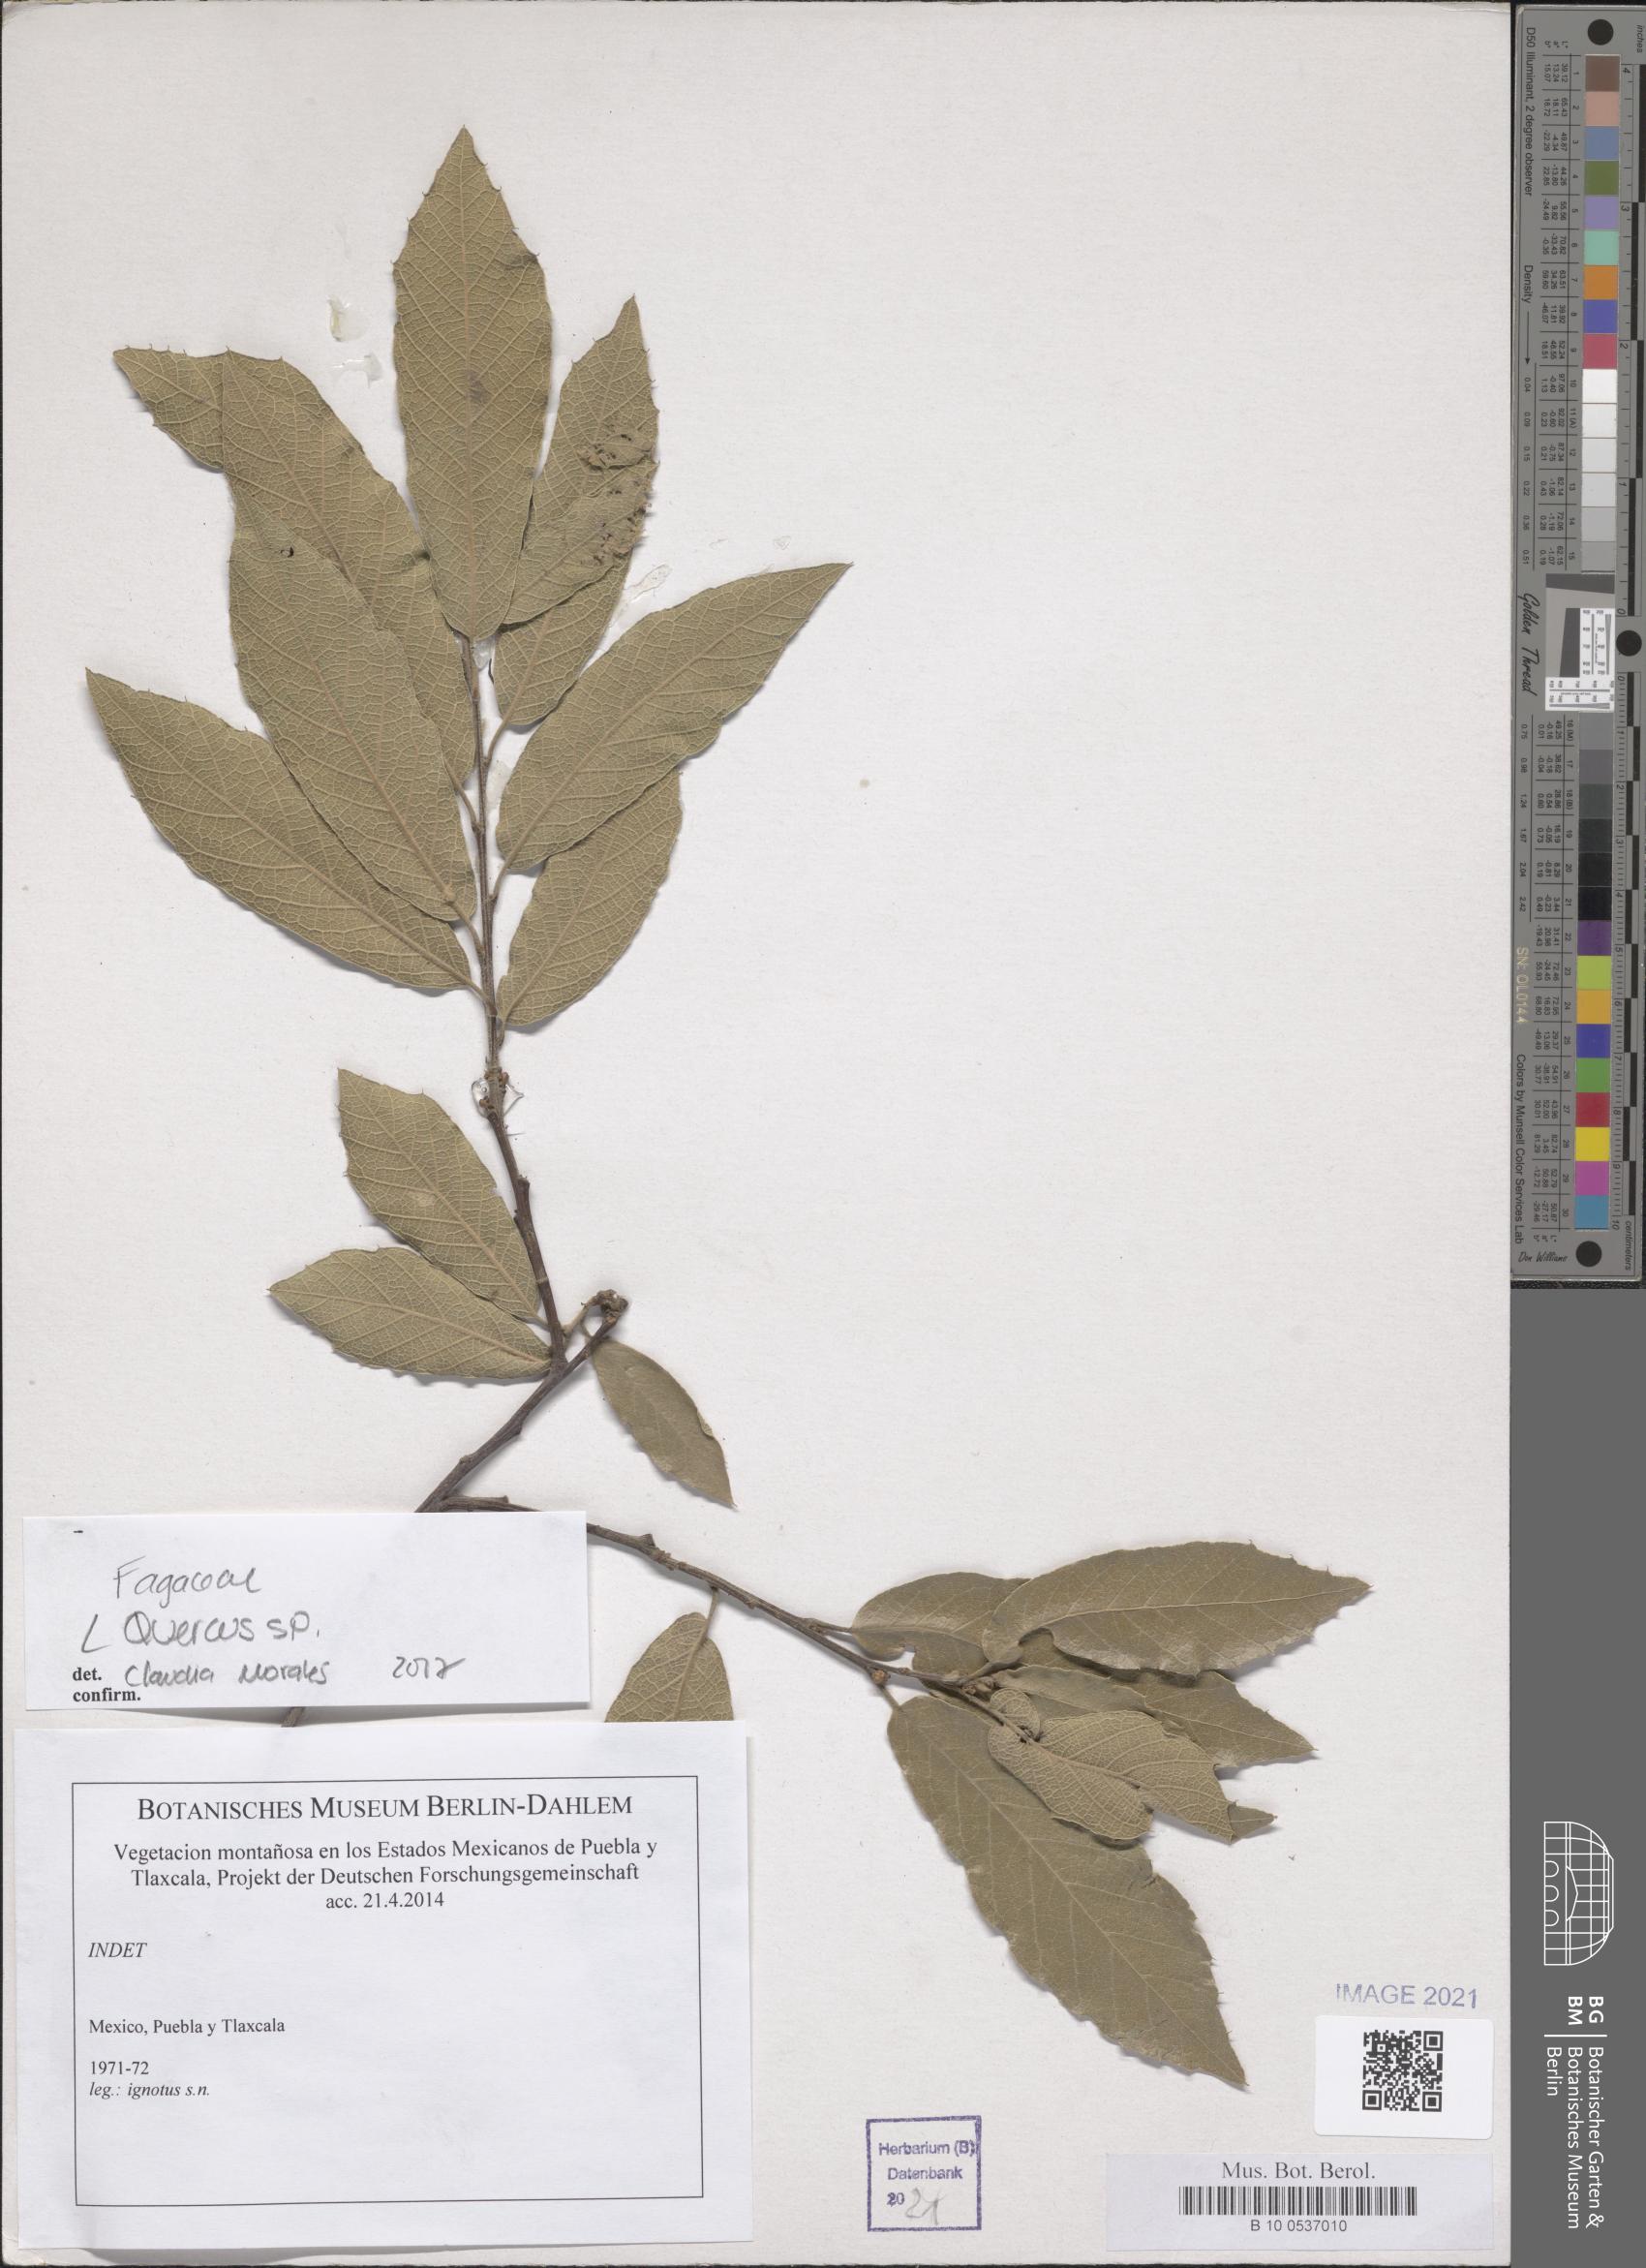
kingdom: Plantae
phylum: Tracheophyta
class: Magnoliopsida
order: Fagales
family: Fagaceae
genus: Quercus
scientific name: Quercus
